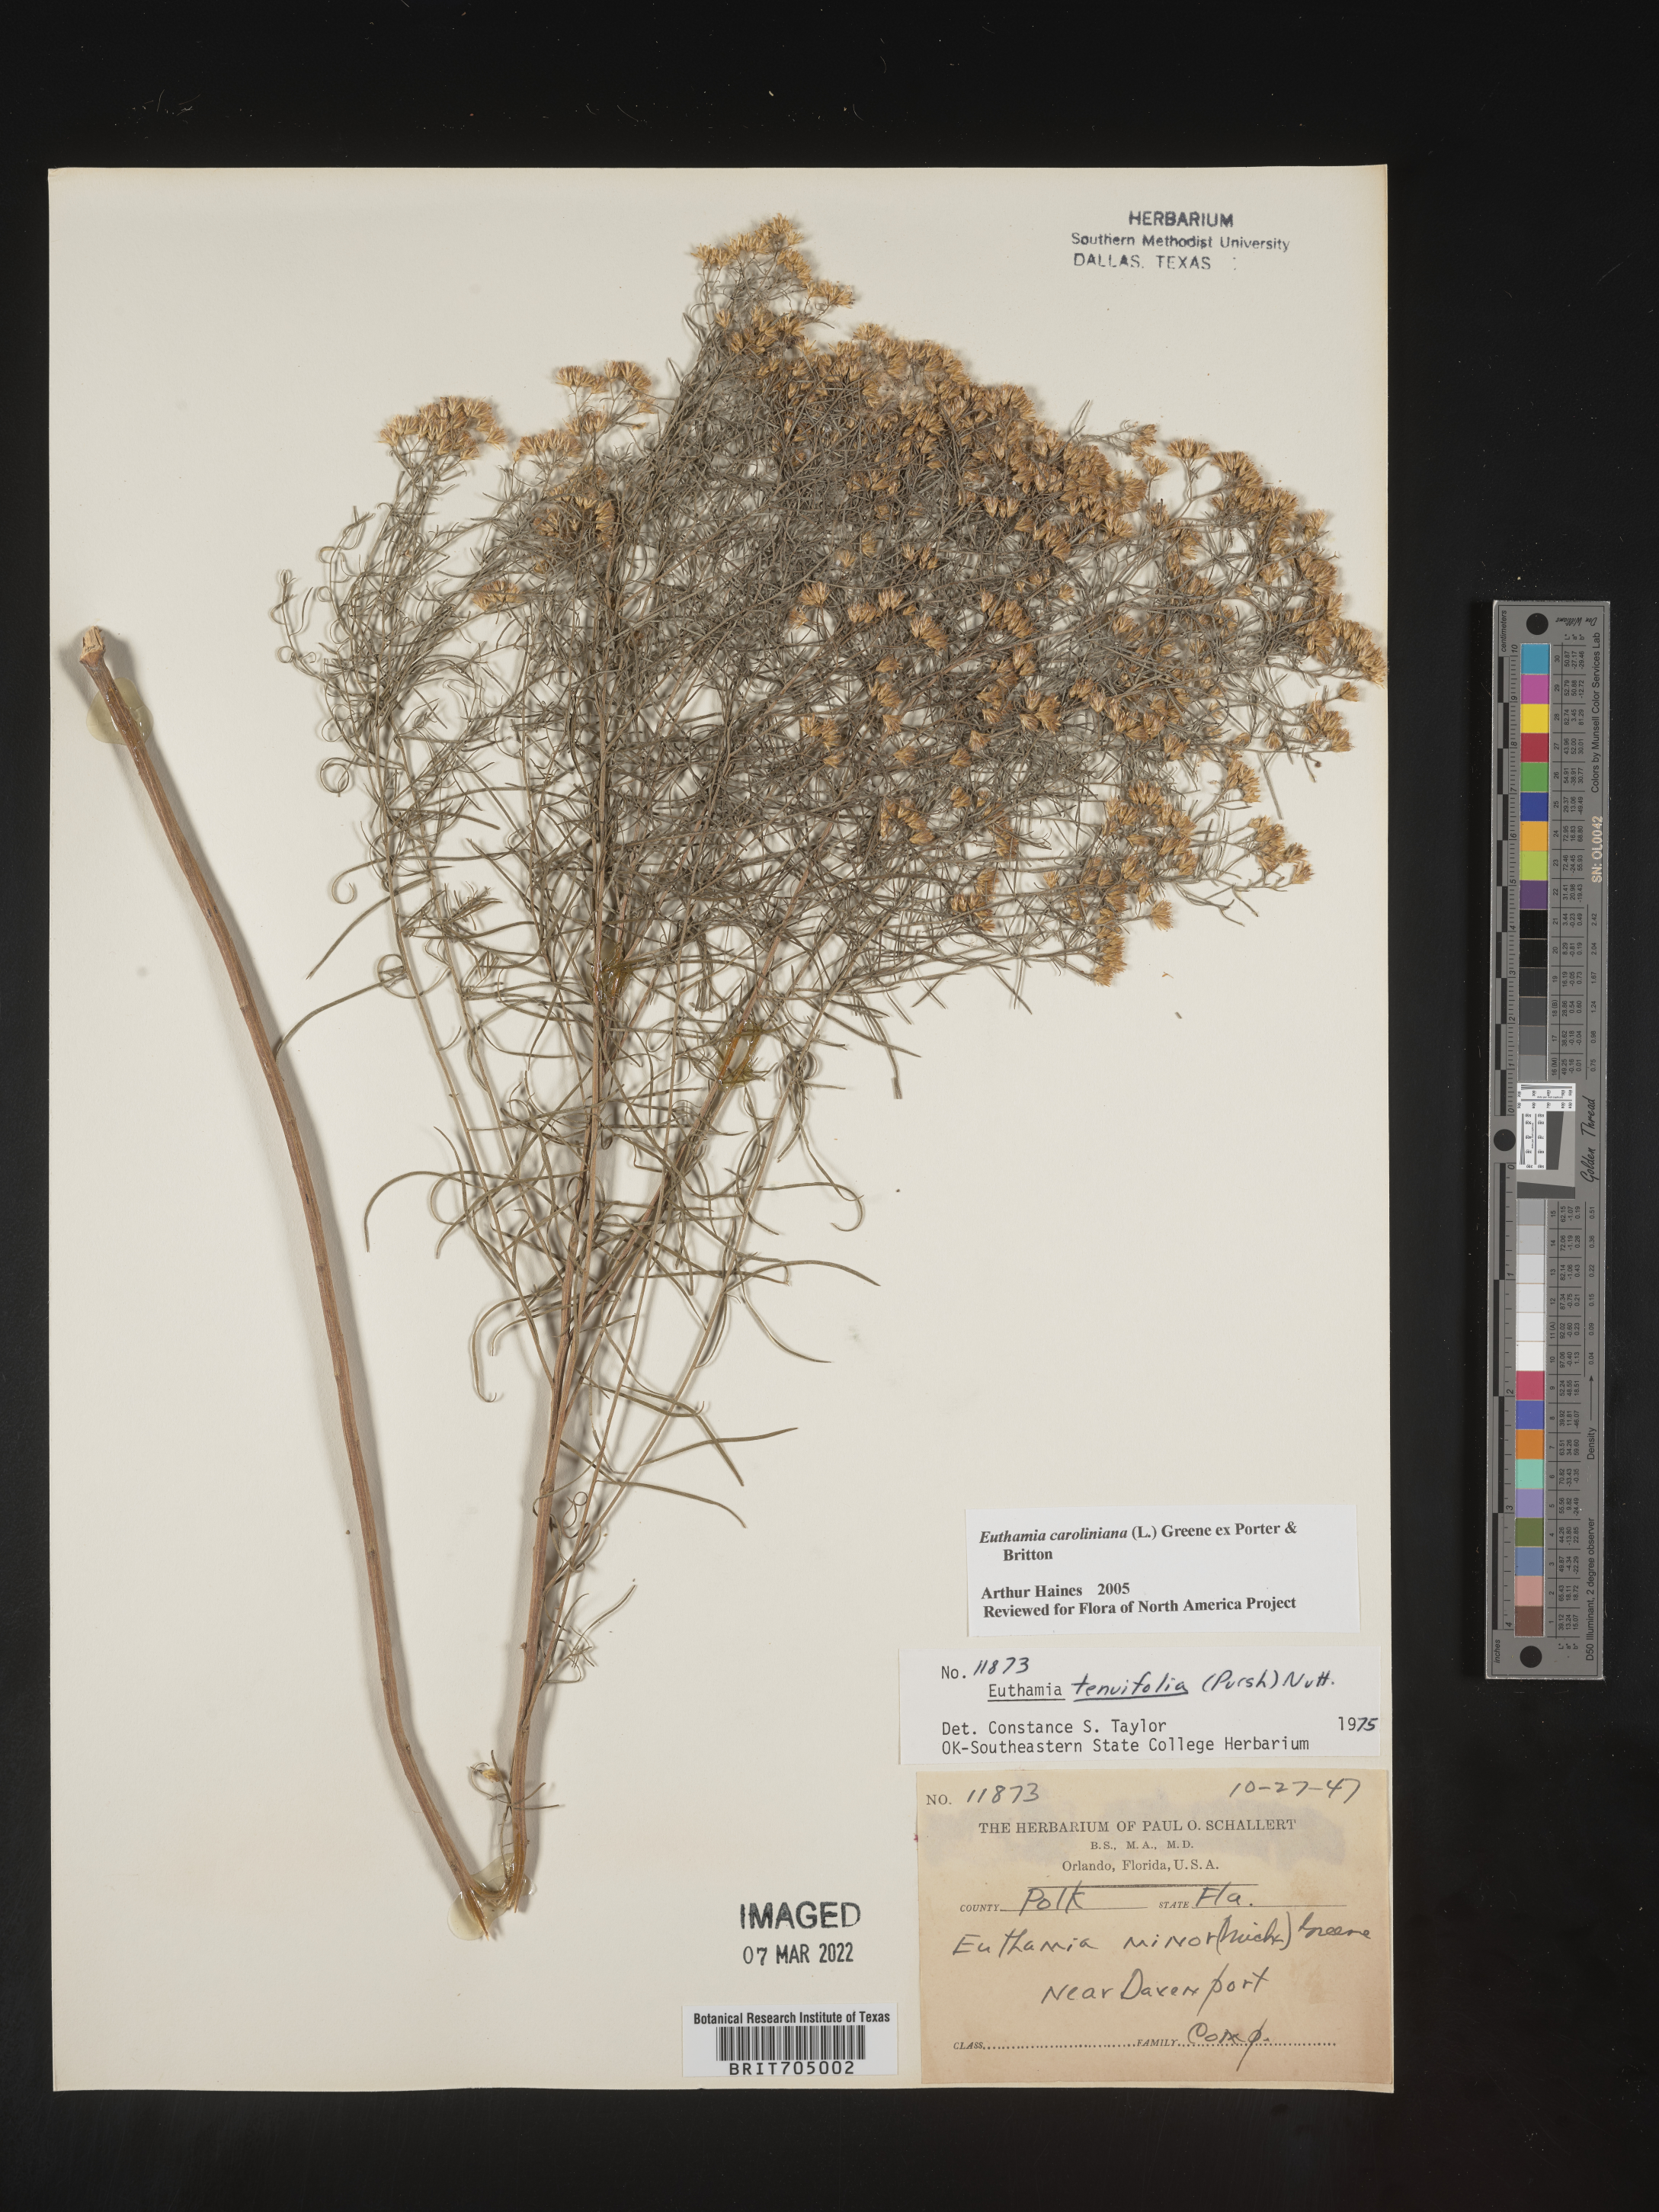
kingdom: Plantae
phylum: Tracheophyta
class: Magnoliopsida
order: Asterales
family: Asteraceae
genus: Euthamia
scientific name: Euthamia caroliniana
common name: Coastal plain goldentop
